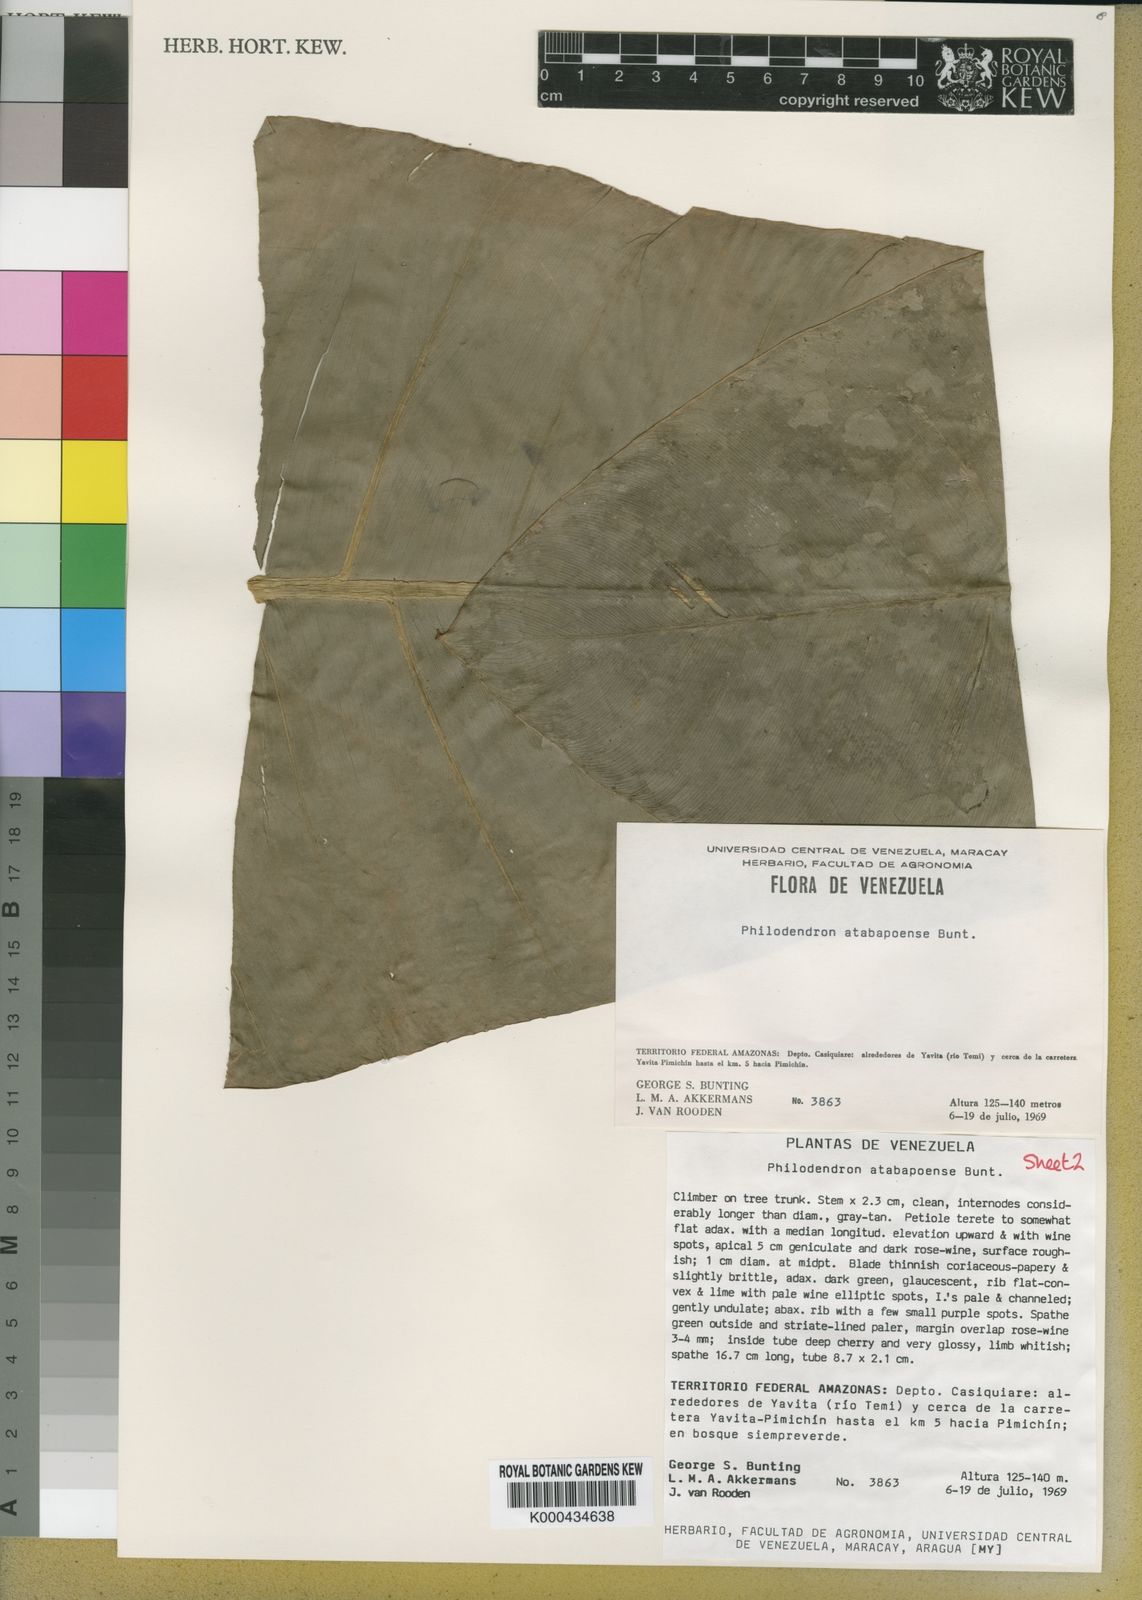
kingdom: Plantae
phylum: Tracheophyta
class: Liliopsida
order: Alismatales
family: Araceae
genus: Philodendron
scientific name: Philodendron atabapoense
